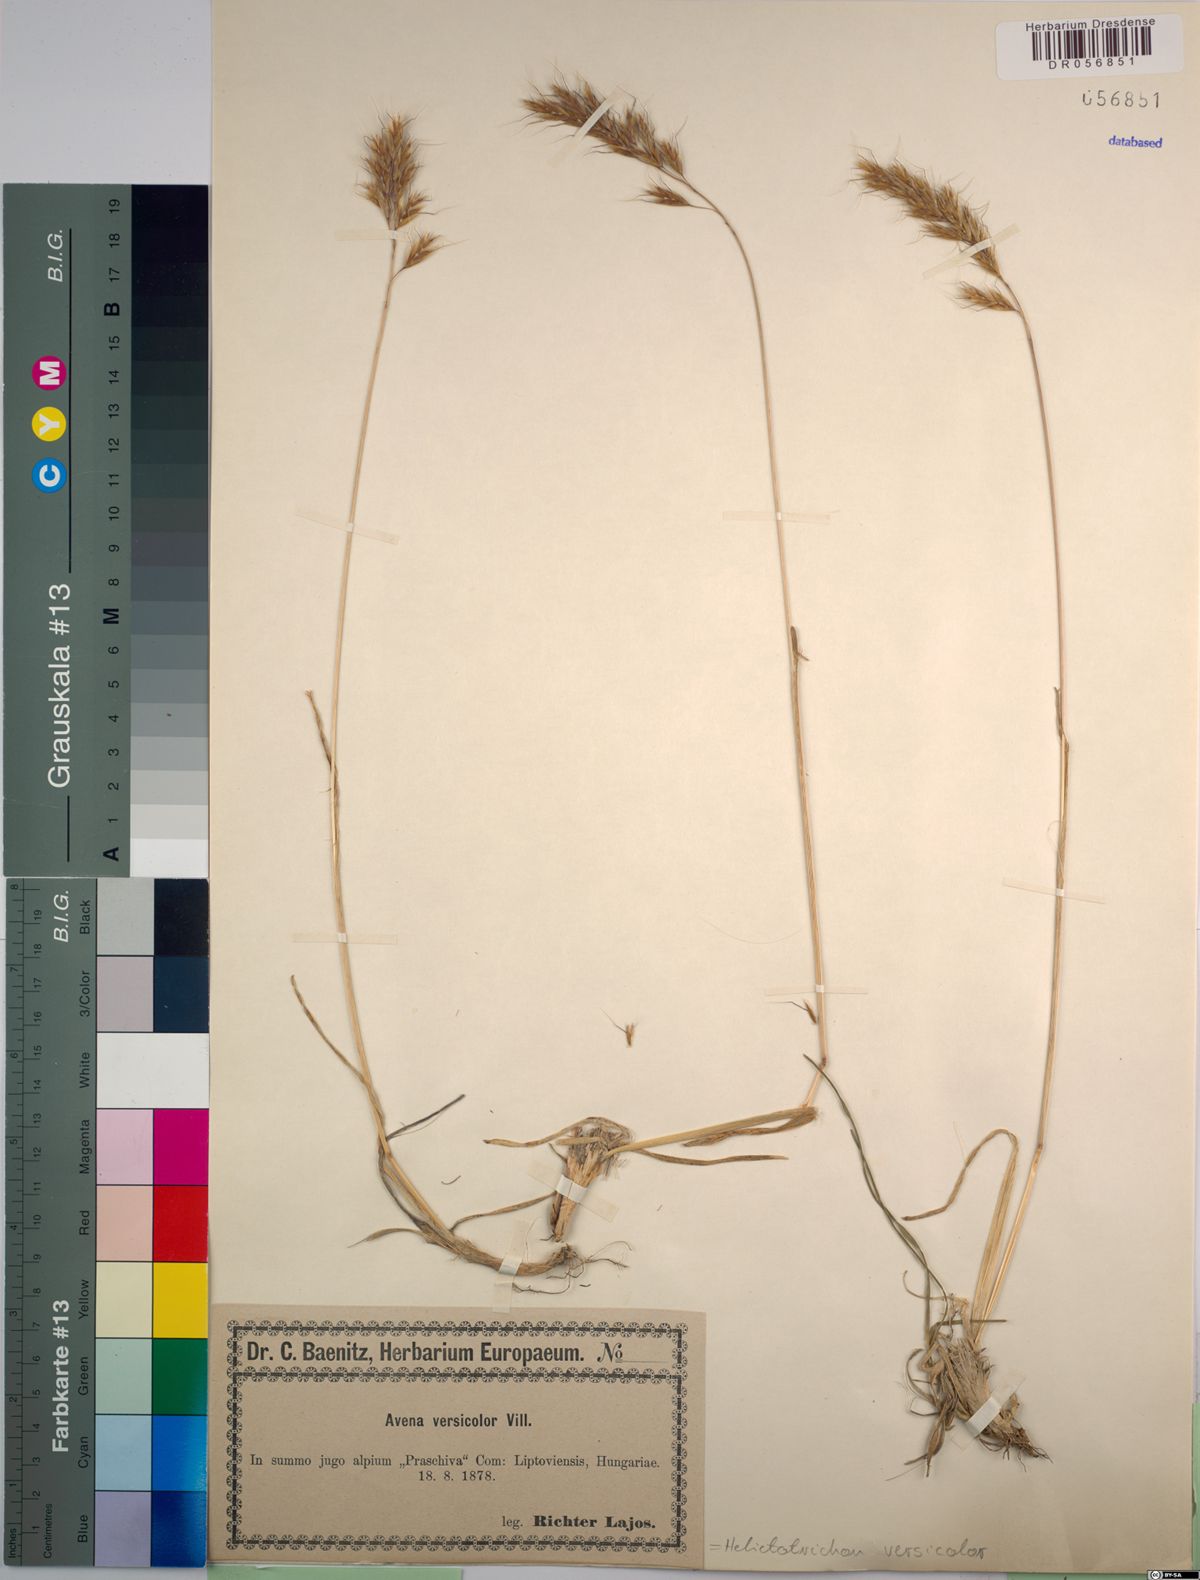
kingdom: Plantae
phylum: Tracheophyta
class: Liliopsida
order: Poales
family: Poaceae
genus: Helictochloa
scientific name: Helictochloa versicolor
